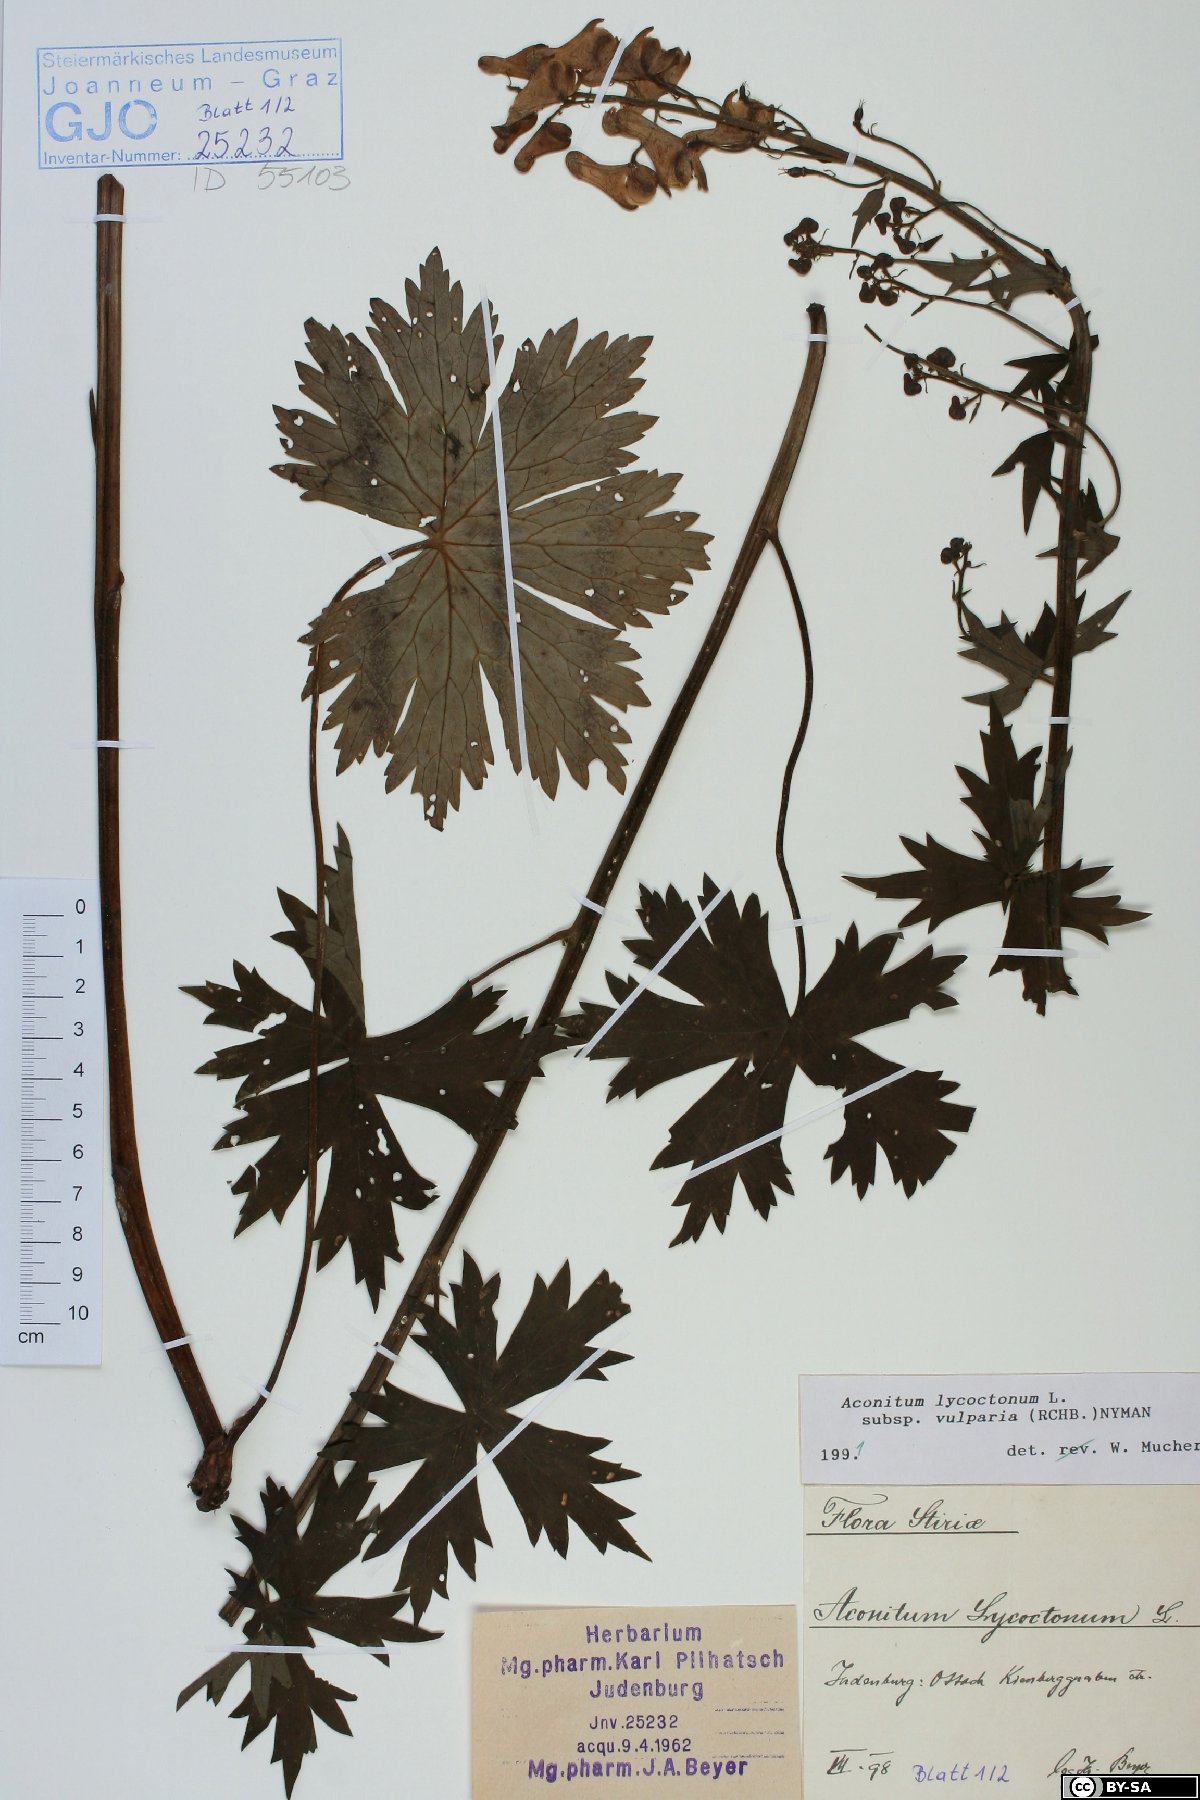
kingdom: Plantae
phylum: Tracheophyta
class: Magnoliopsida
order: Ranunculales
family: Ranunculaceae
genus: Aconitum
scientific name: Aconitum lycoctonum
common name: Wolf's-bane
